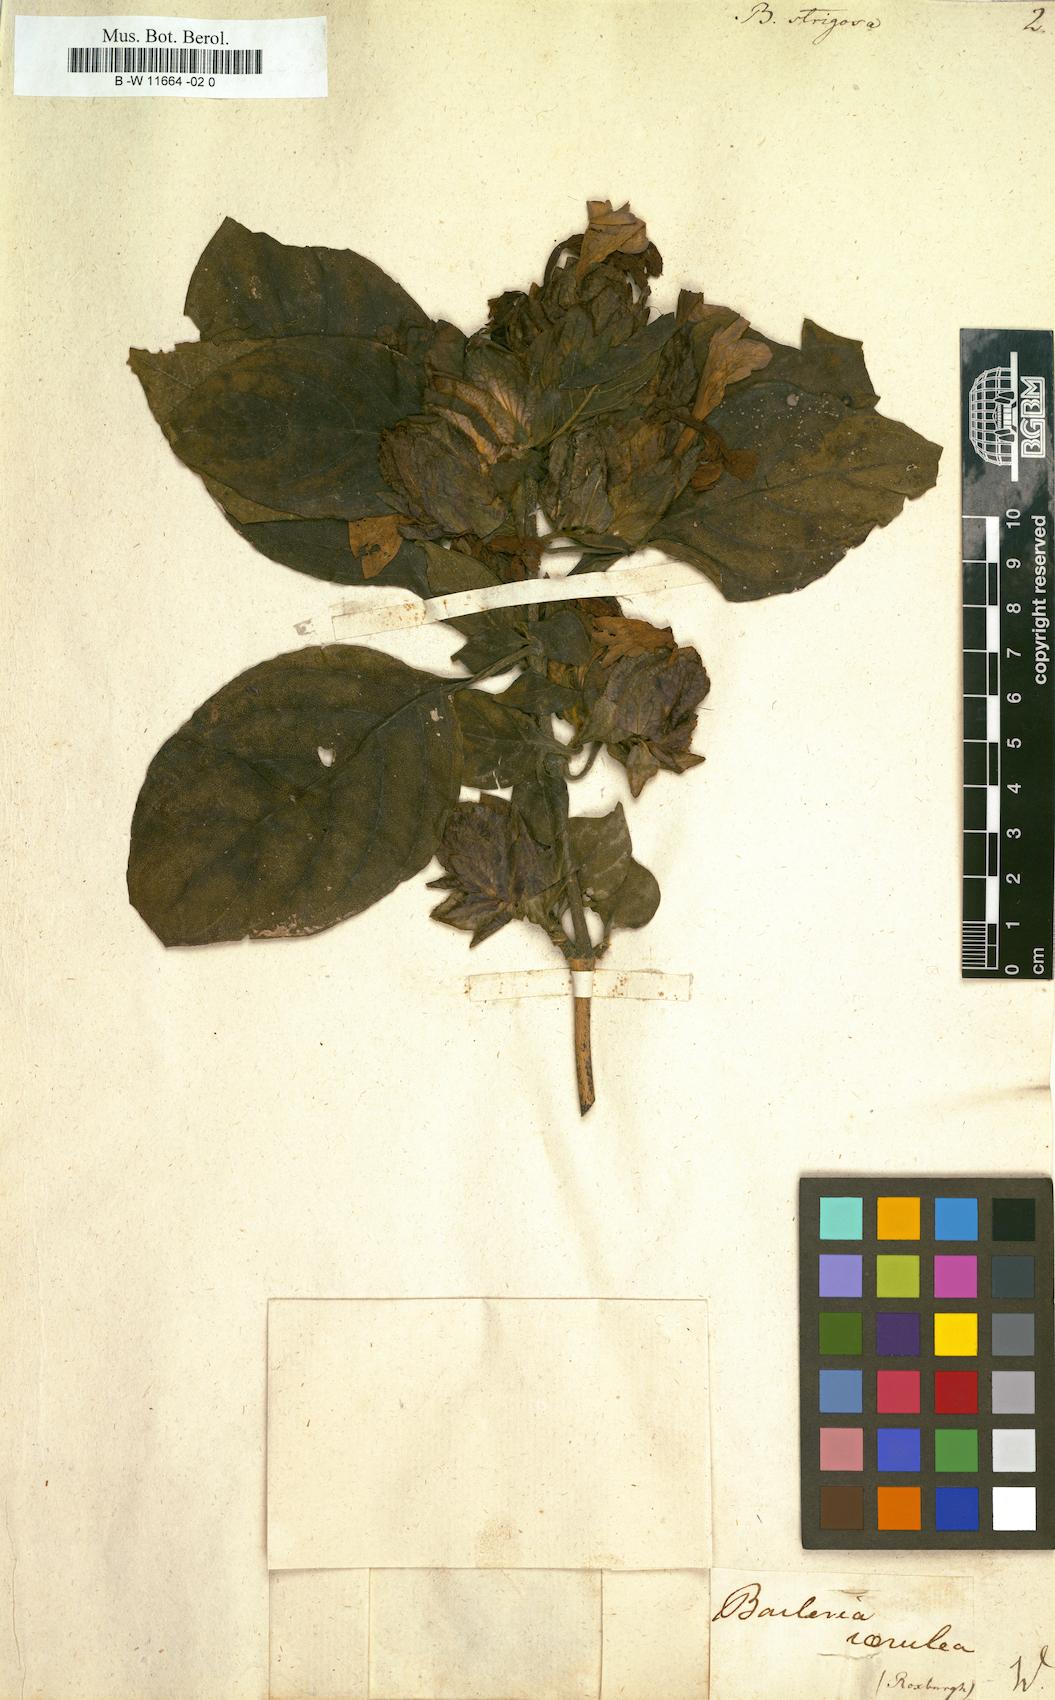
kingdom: Plantae
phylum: Tracheophyta
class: Magnoliopsida
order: Lamiales
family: Acanthaceae
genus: Barleria
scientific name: Barleria strigosa
